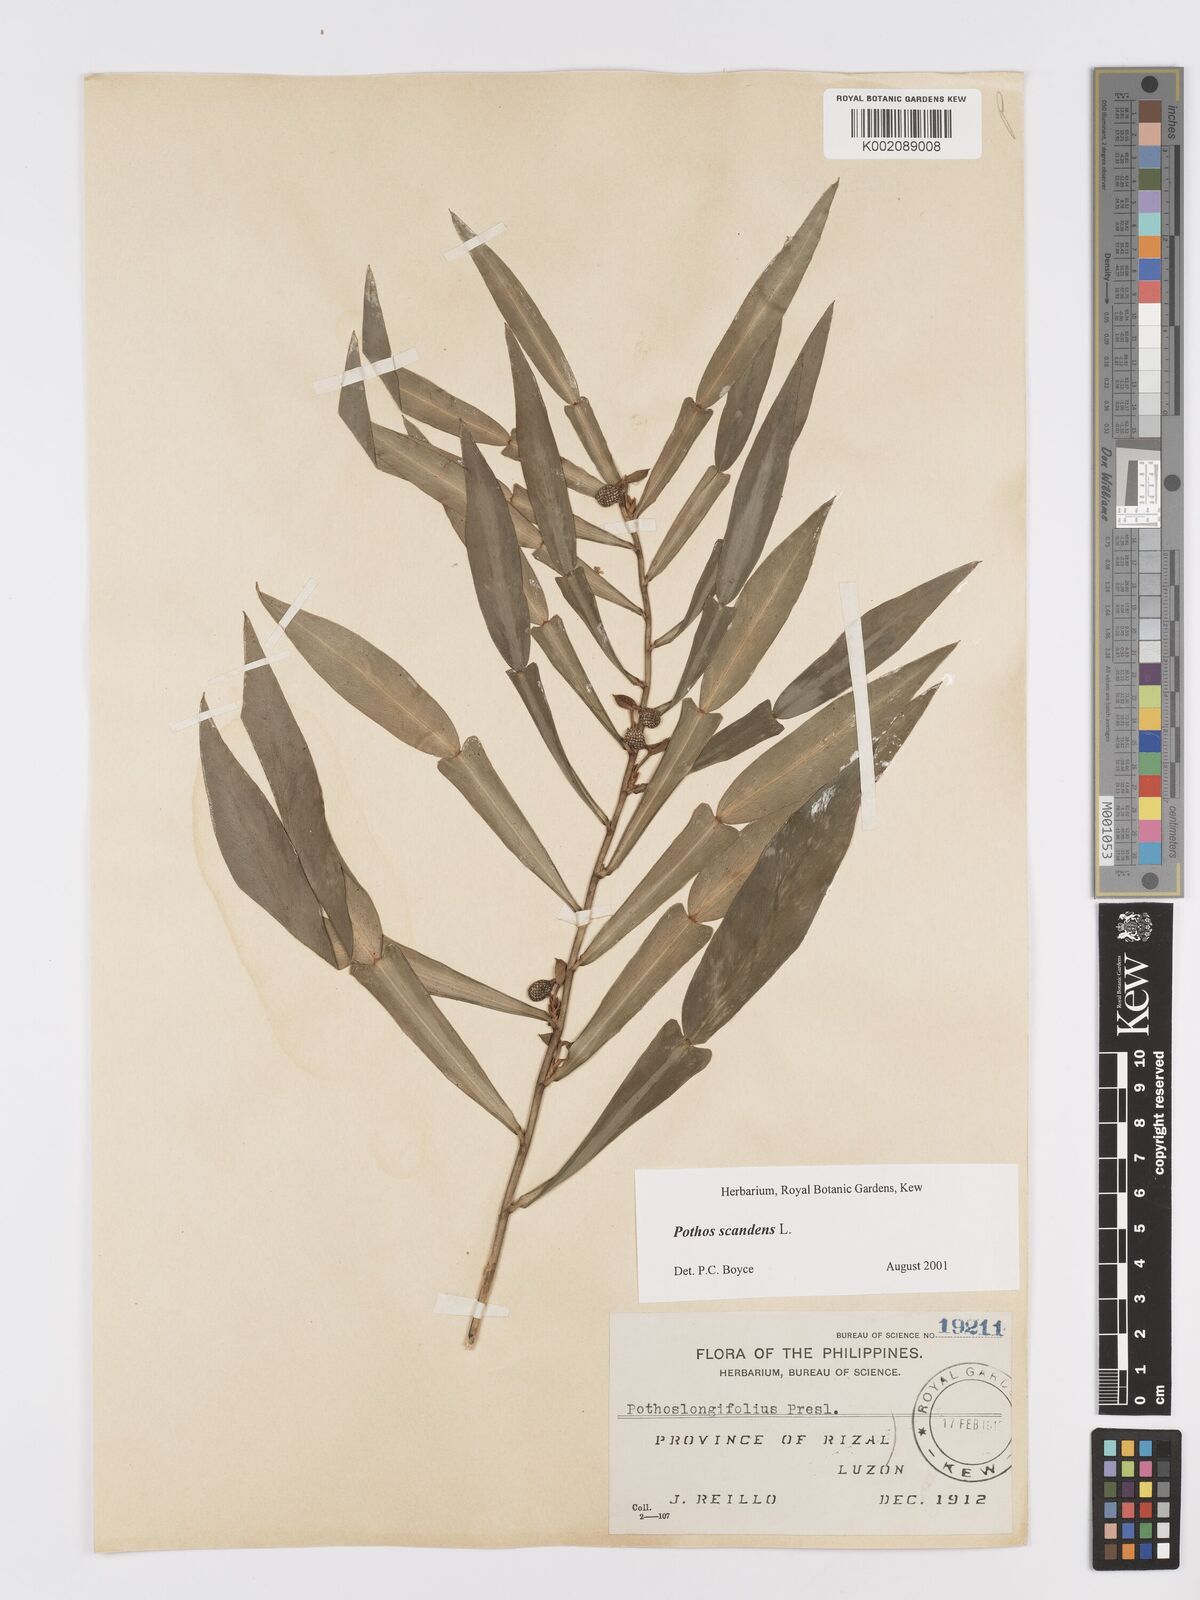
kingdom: Plantae
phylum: Tracheophyta
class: Liliopsida
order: Alismatales
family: Araceae
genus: Pothos
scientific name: Pothos scandens
